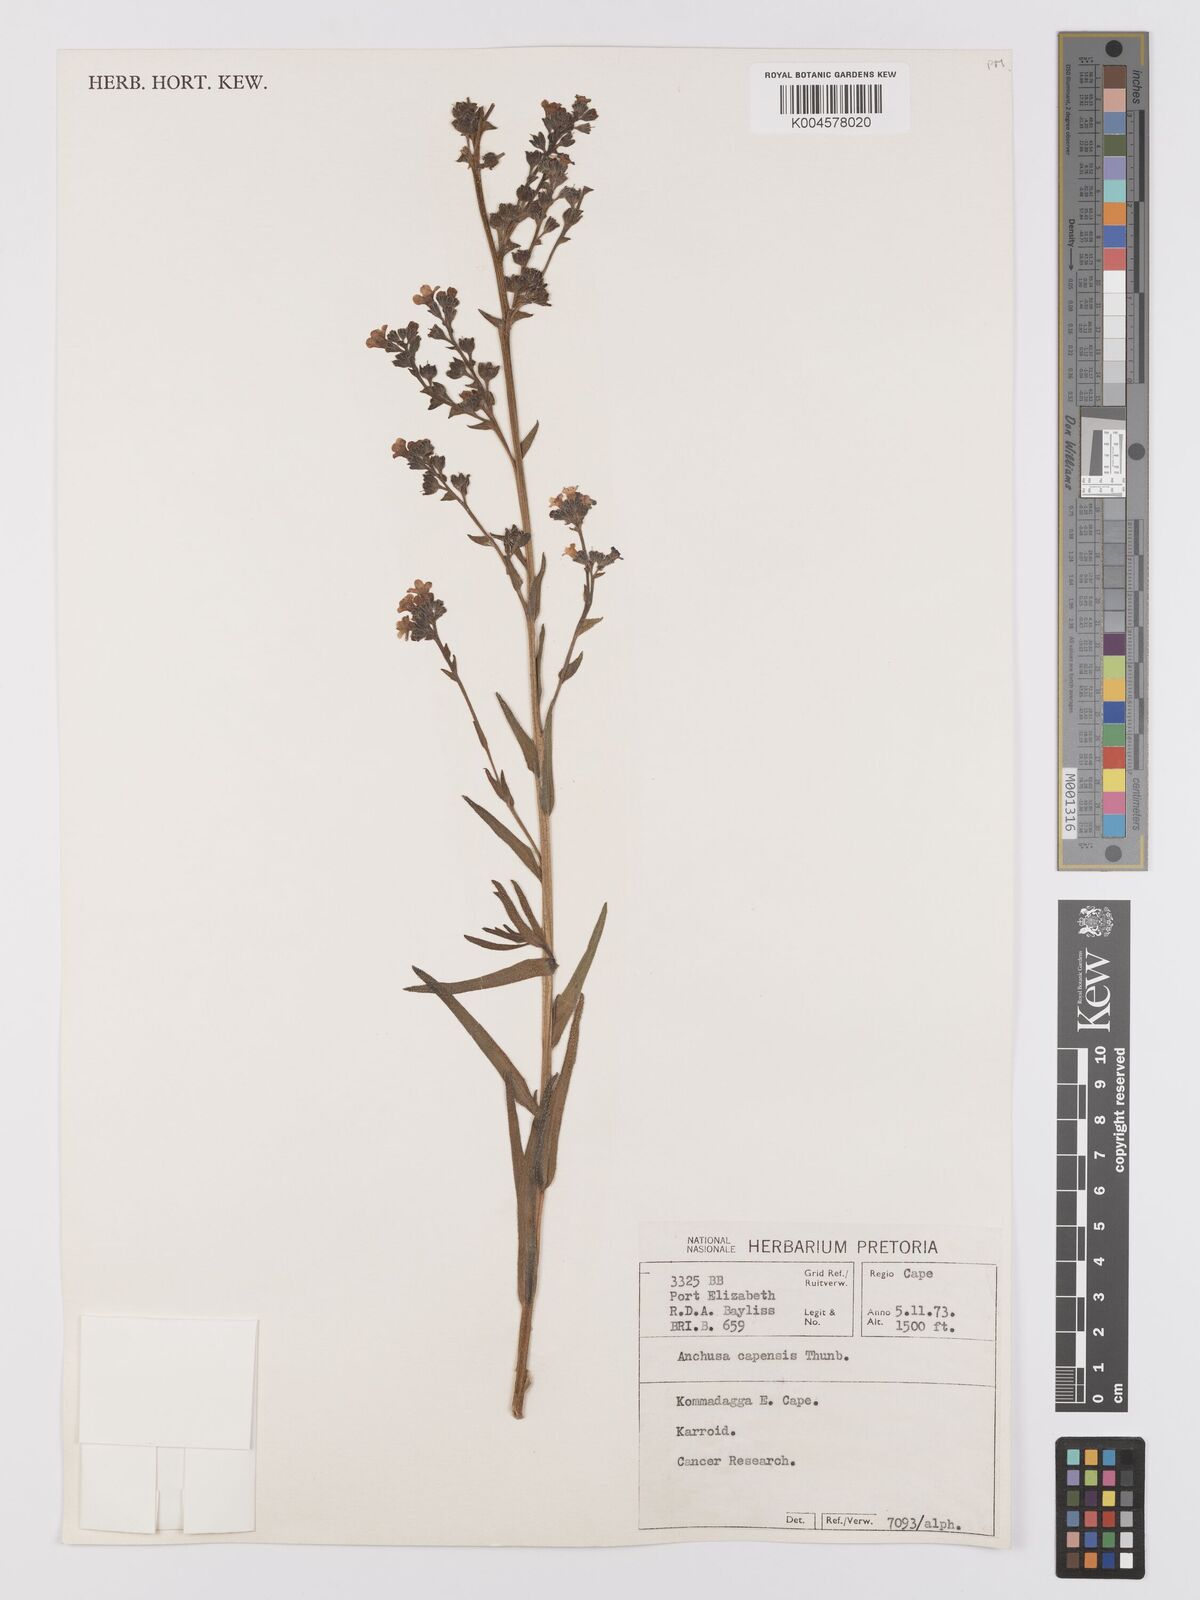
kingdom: Plantae
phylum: Tracheophyta
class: Magnoliopsida
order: Boraginales
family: Boraginaceae
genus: Anchusa
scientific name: Anchusa capensis
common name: Cape bugloss
